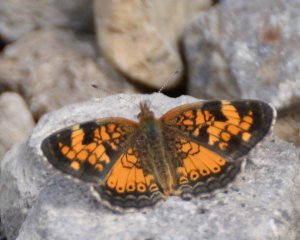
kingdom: Animalia
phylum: Arthropoda
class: Insecta
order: Lepidoptera
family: Nymphalidae
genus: Phyciodes
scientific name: Phyciodes tharos
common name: Northern Crescent
